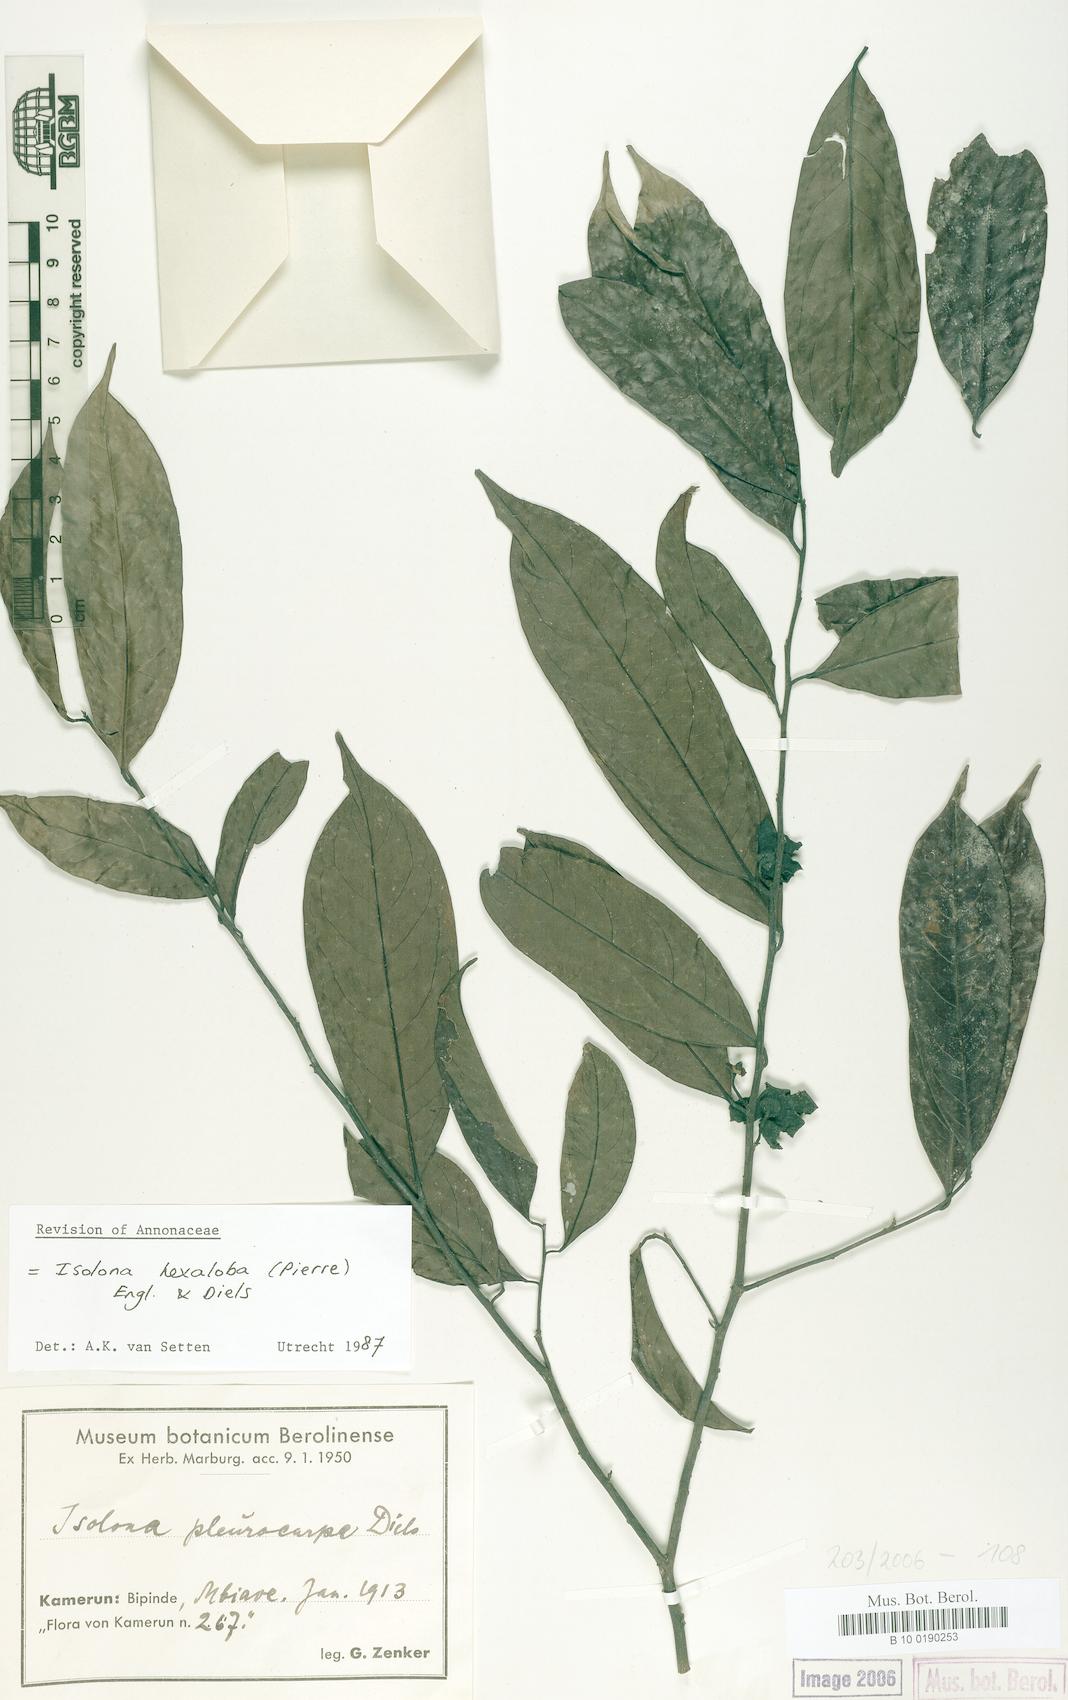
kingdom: Plantae
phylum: Tracheophyta
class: Magnoliopsida
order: Magnoliales
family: Annonaceae
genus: Isolona
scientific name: Isolona hexaloba
